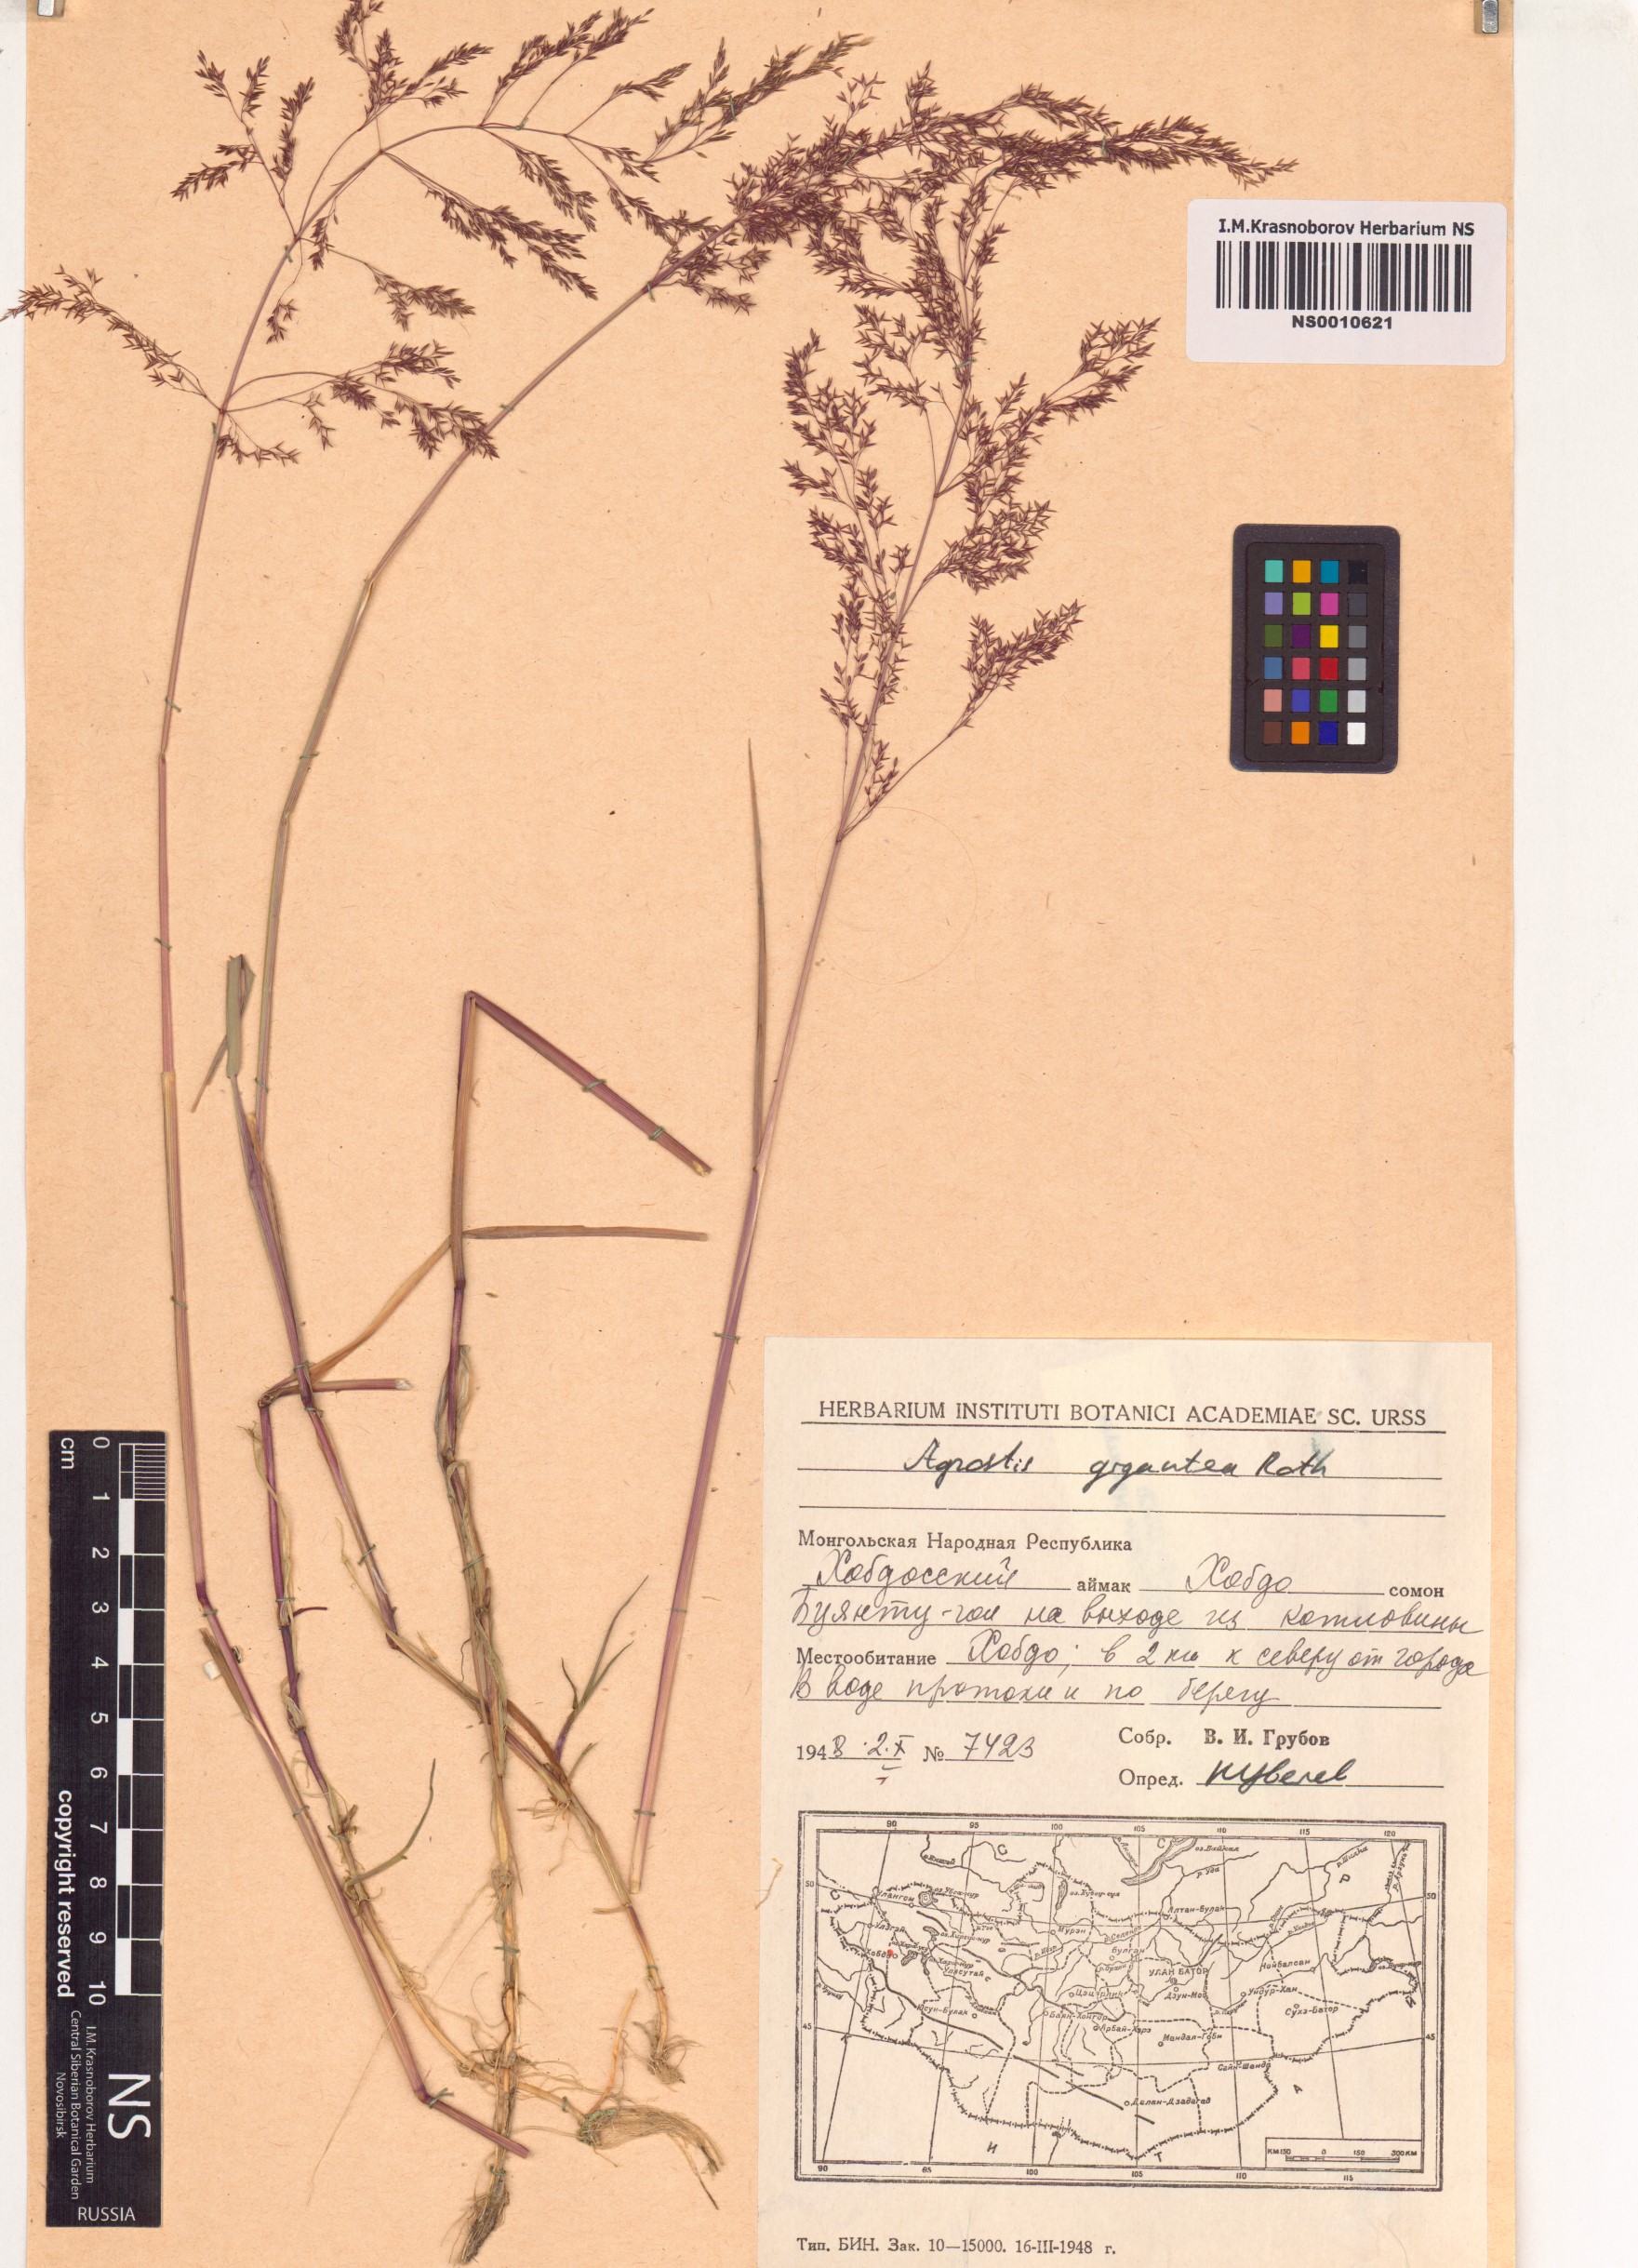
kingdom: Plantae
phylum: Tracheophyta
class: Liliopsida
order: Poales
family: Poaceae
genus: Agrostis
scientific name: Agrostis gigantea
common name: Black bent
